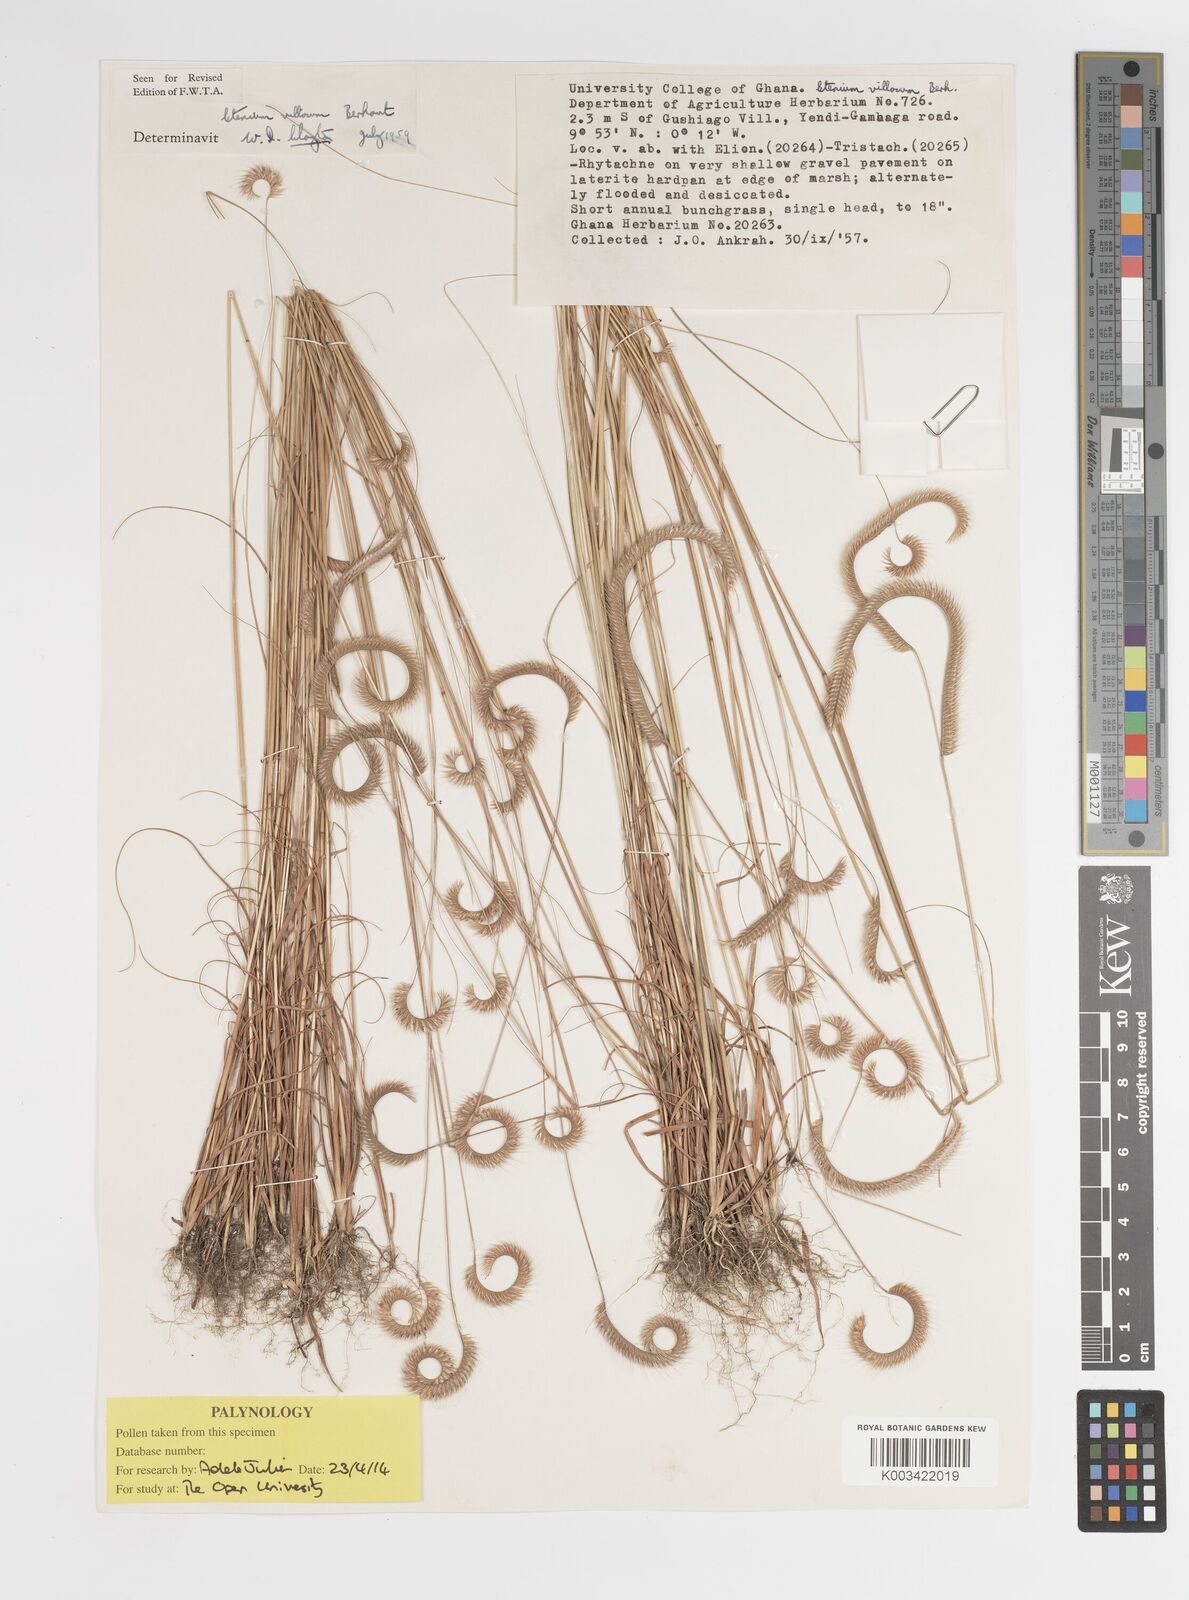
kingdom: Plantae
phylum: Tracheophyta
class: Liliopsida
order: Poales
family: Poaceae
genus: Ctenium
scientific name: Ctenium villosum
